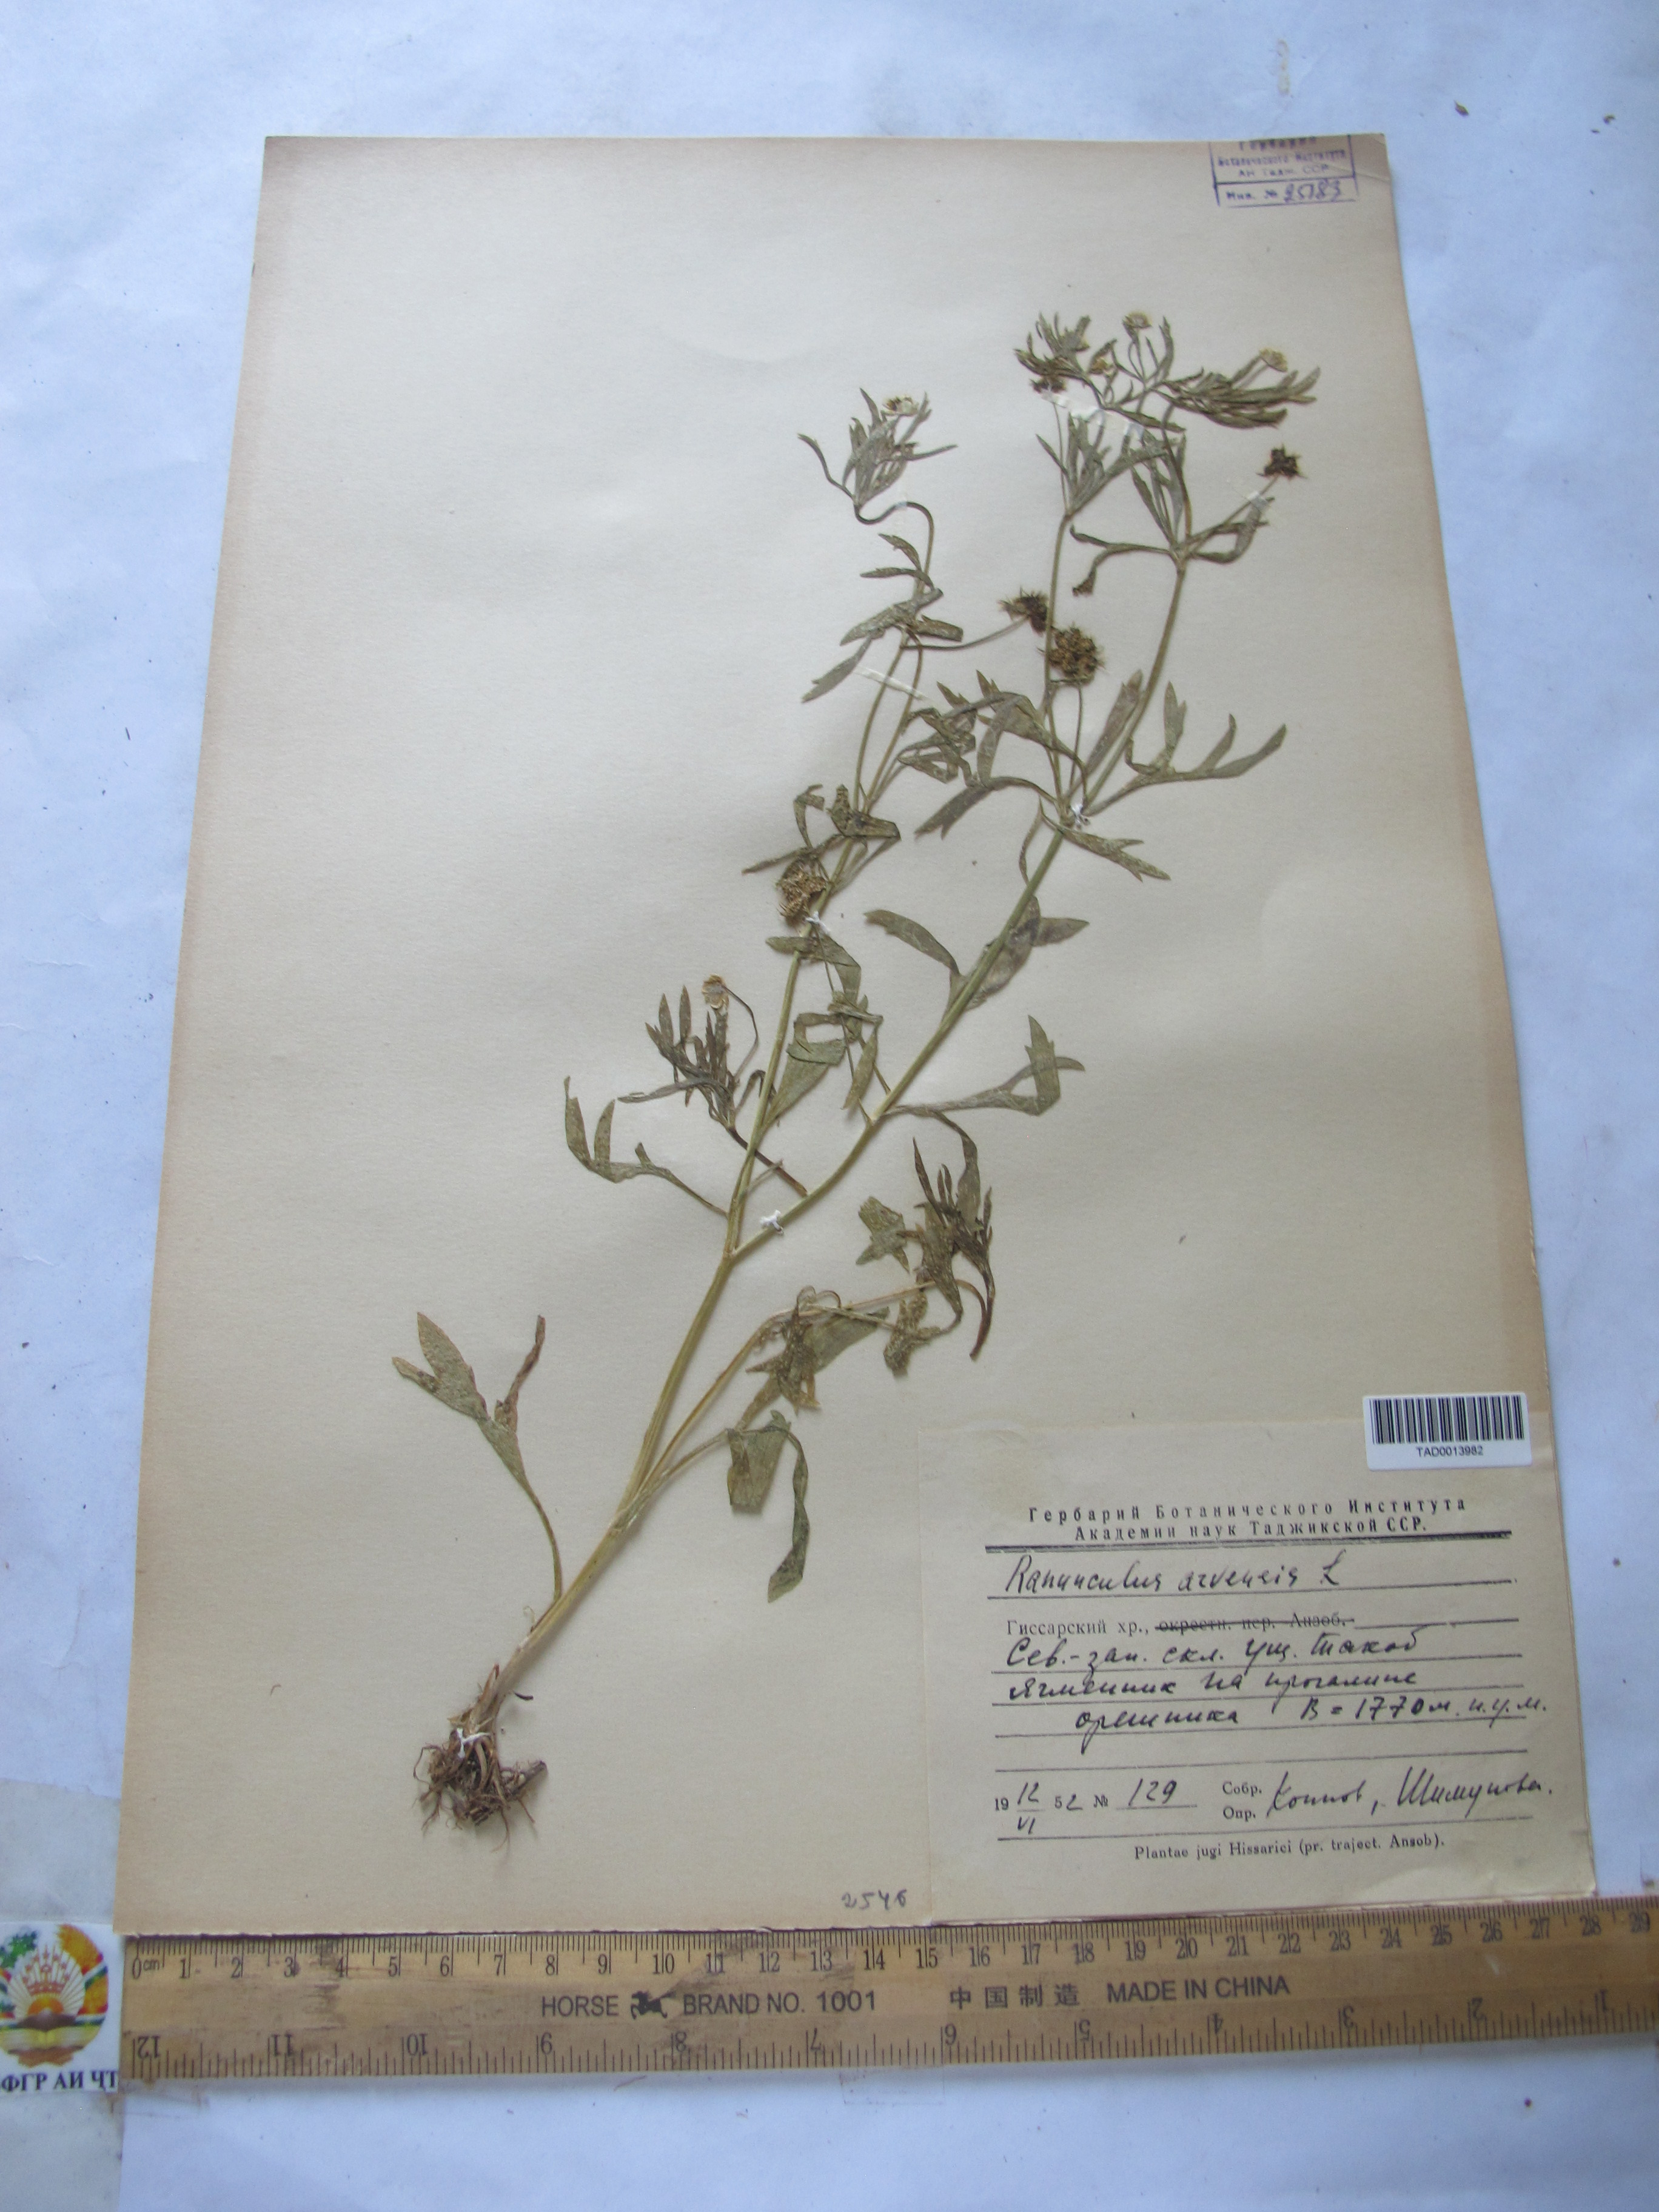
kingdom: Plantae
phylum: Tracheophyta
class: Magnoliopsida
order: Ranunculales
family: Ranunculaceae
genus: Ranunculus
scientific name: Ranunculus arvensis
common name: Corn buttercup
